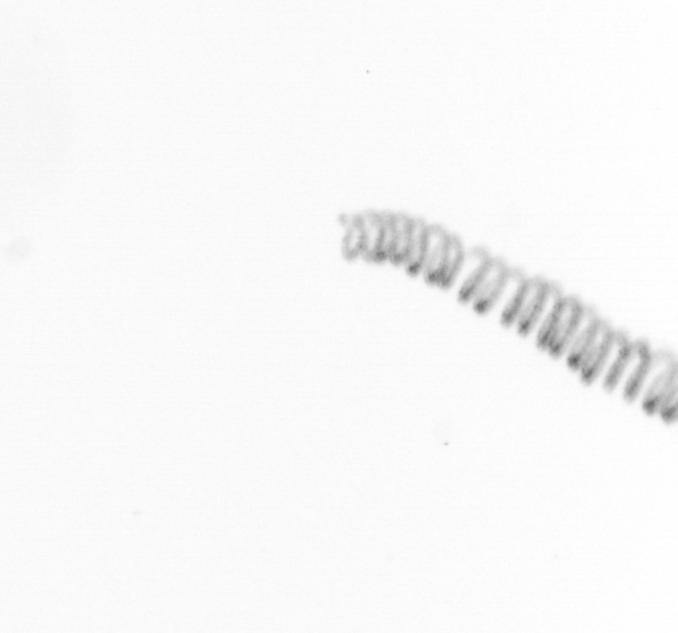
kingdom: Chromista
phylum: Ochrophyta
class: Bacillariophyceae
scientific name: Bacillariophyceae
